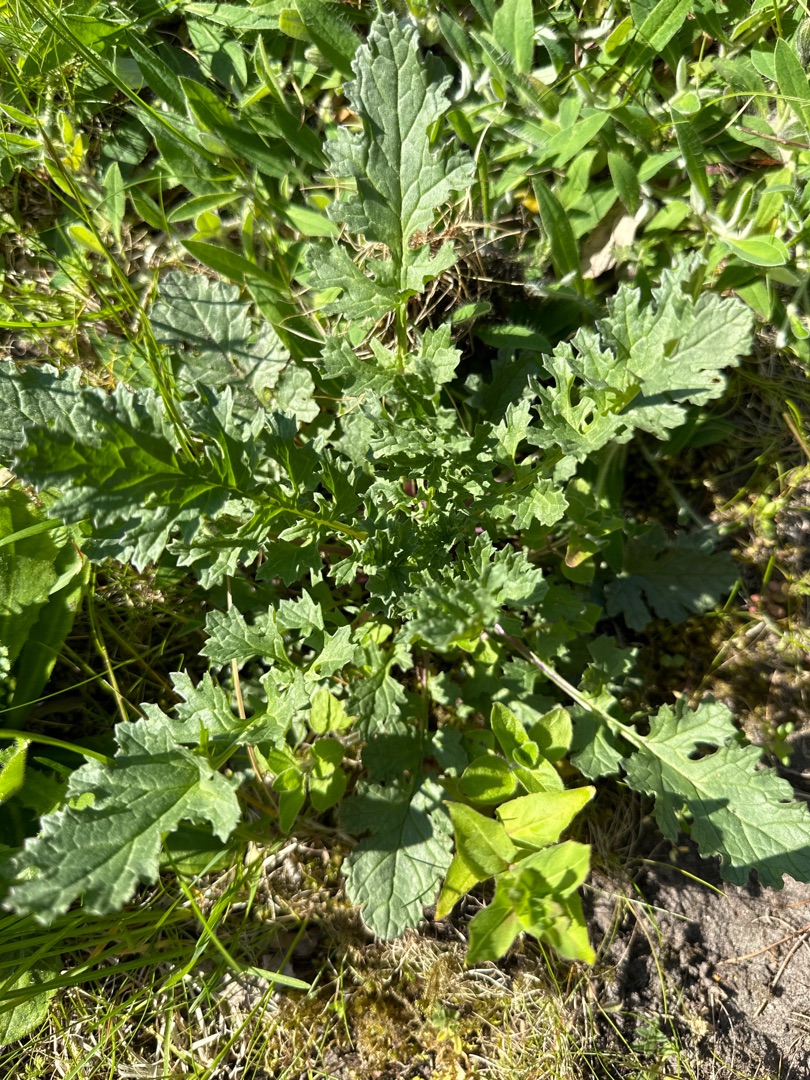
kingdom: Plantae
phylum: Tracheophyta
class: Magnoliopsida
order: Asterales
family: Asteraceae
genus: Jacobaea
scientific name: Jacobaea vulgaris
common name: Eng-brandbæger
